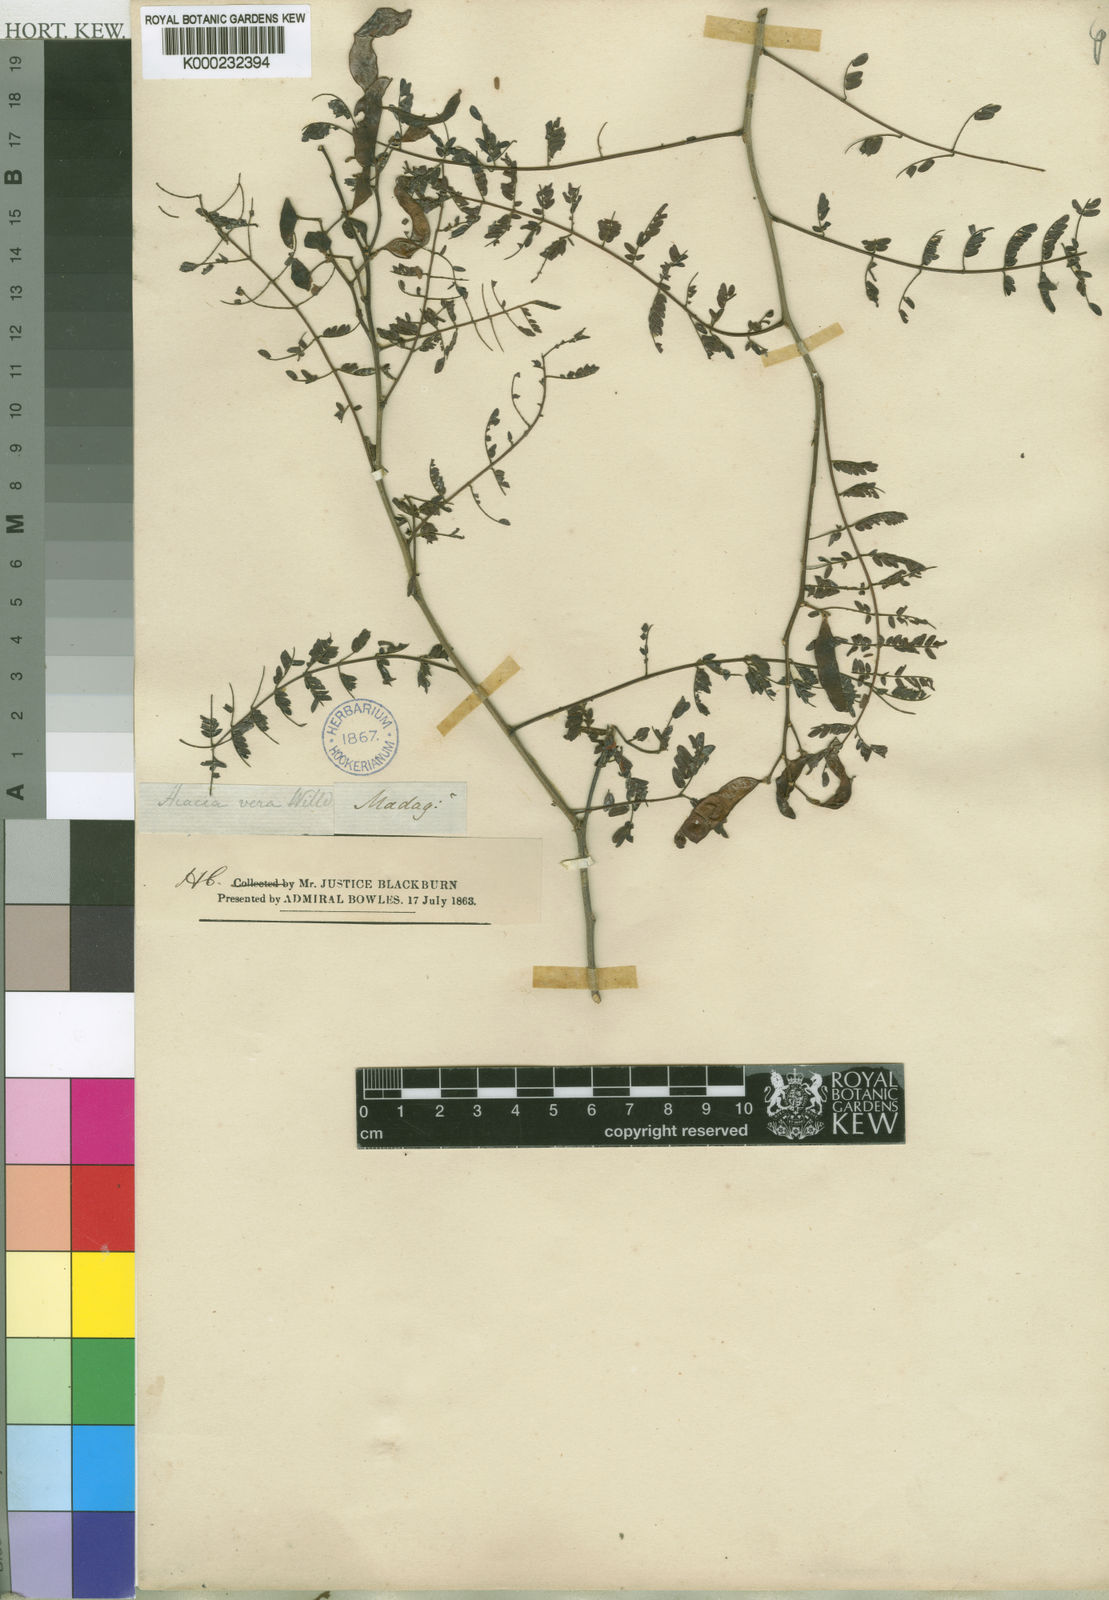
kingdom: Plantae
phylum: Tracheophyta
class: Magnoliopsida
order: Fabales
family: Fabaceae
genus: Mimosa
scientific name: Mimosa latispinosa
